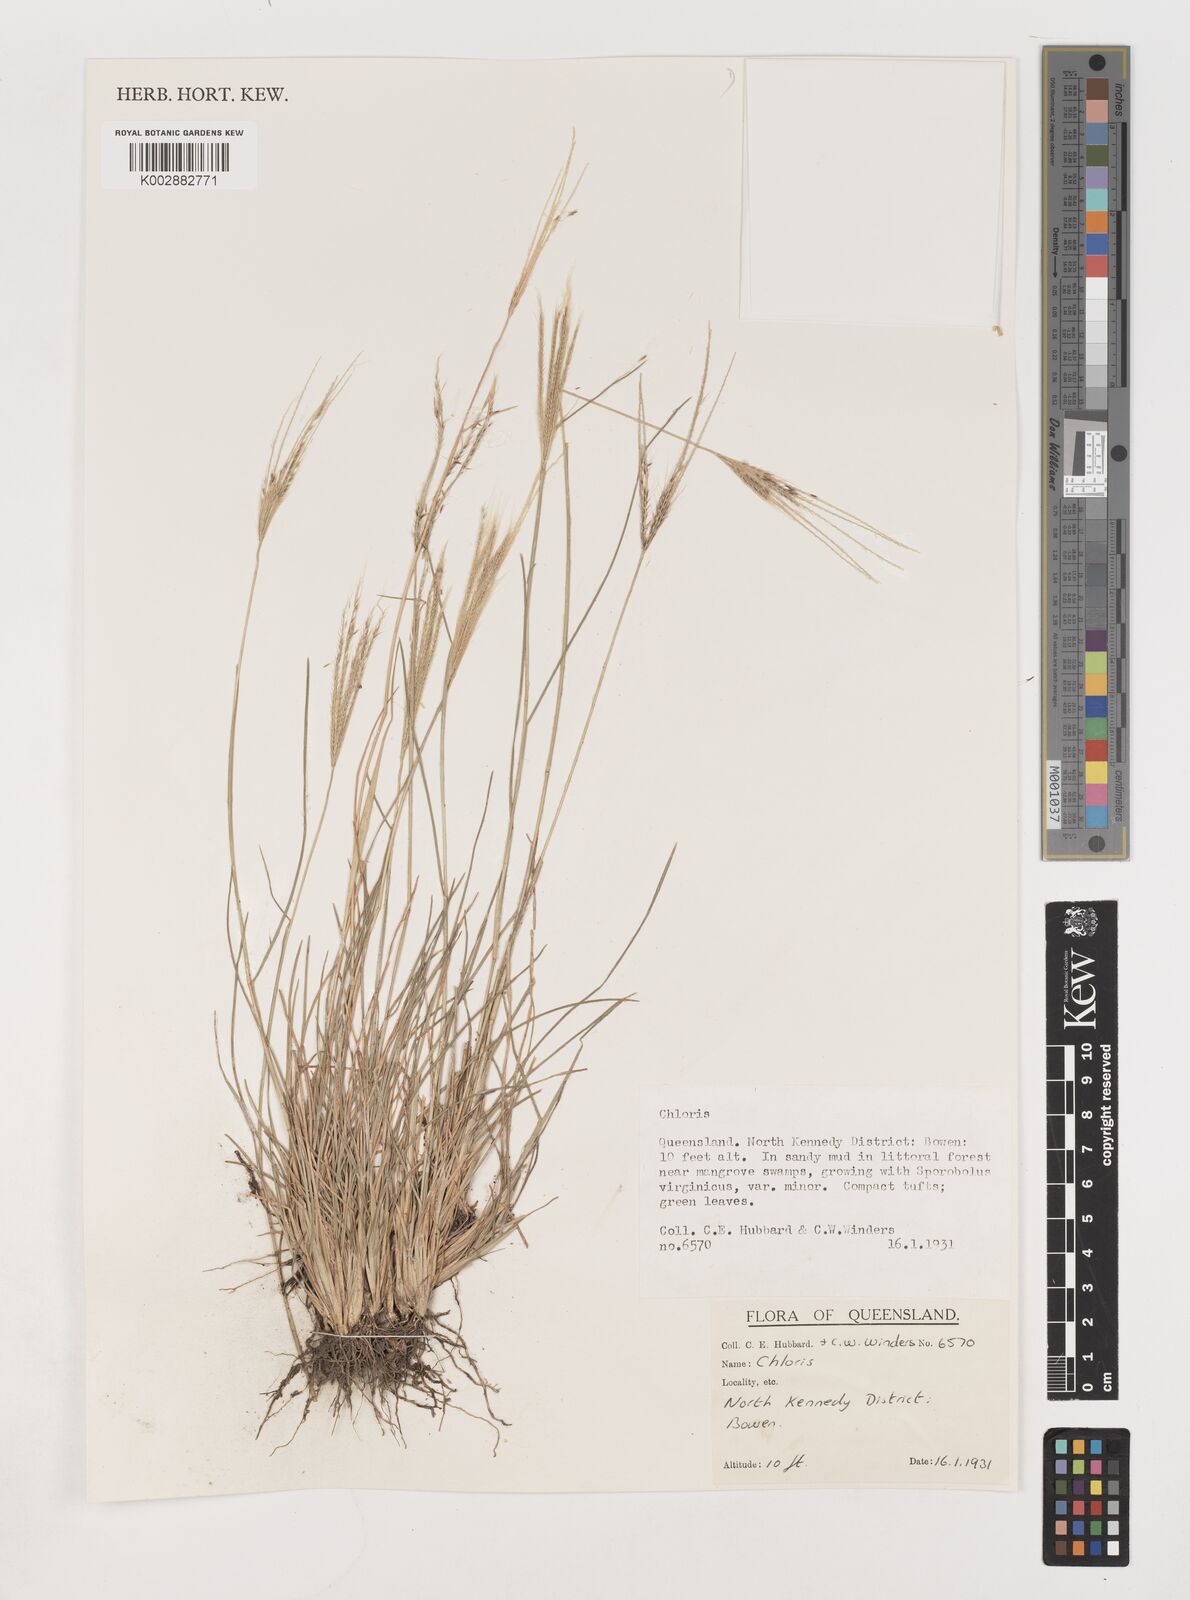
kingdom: Plantae
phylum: Tracheophyta
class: Liliopsida
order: Poales
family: Poaceae
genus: Chloris
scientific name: Chloris divaricata
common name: Spreading windmill grass
